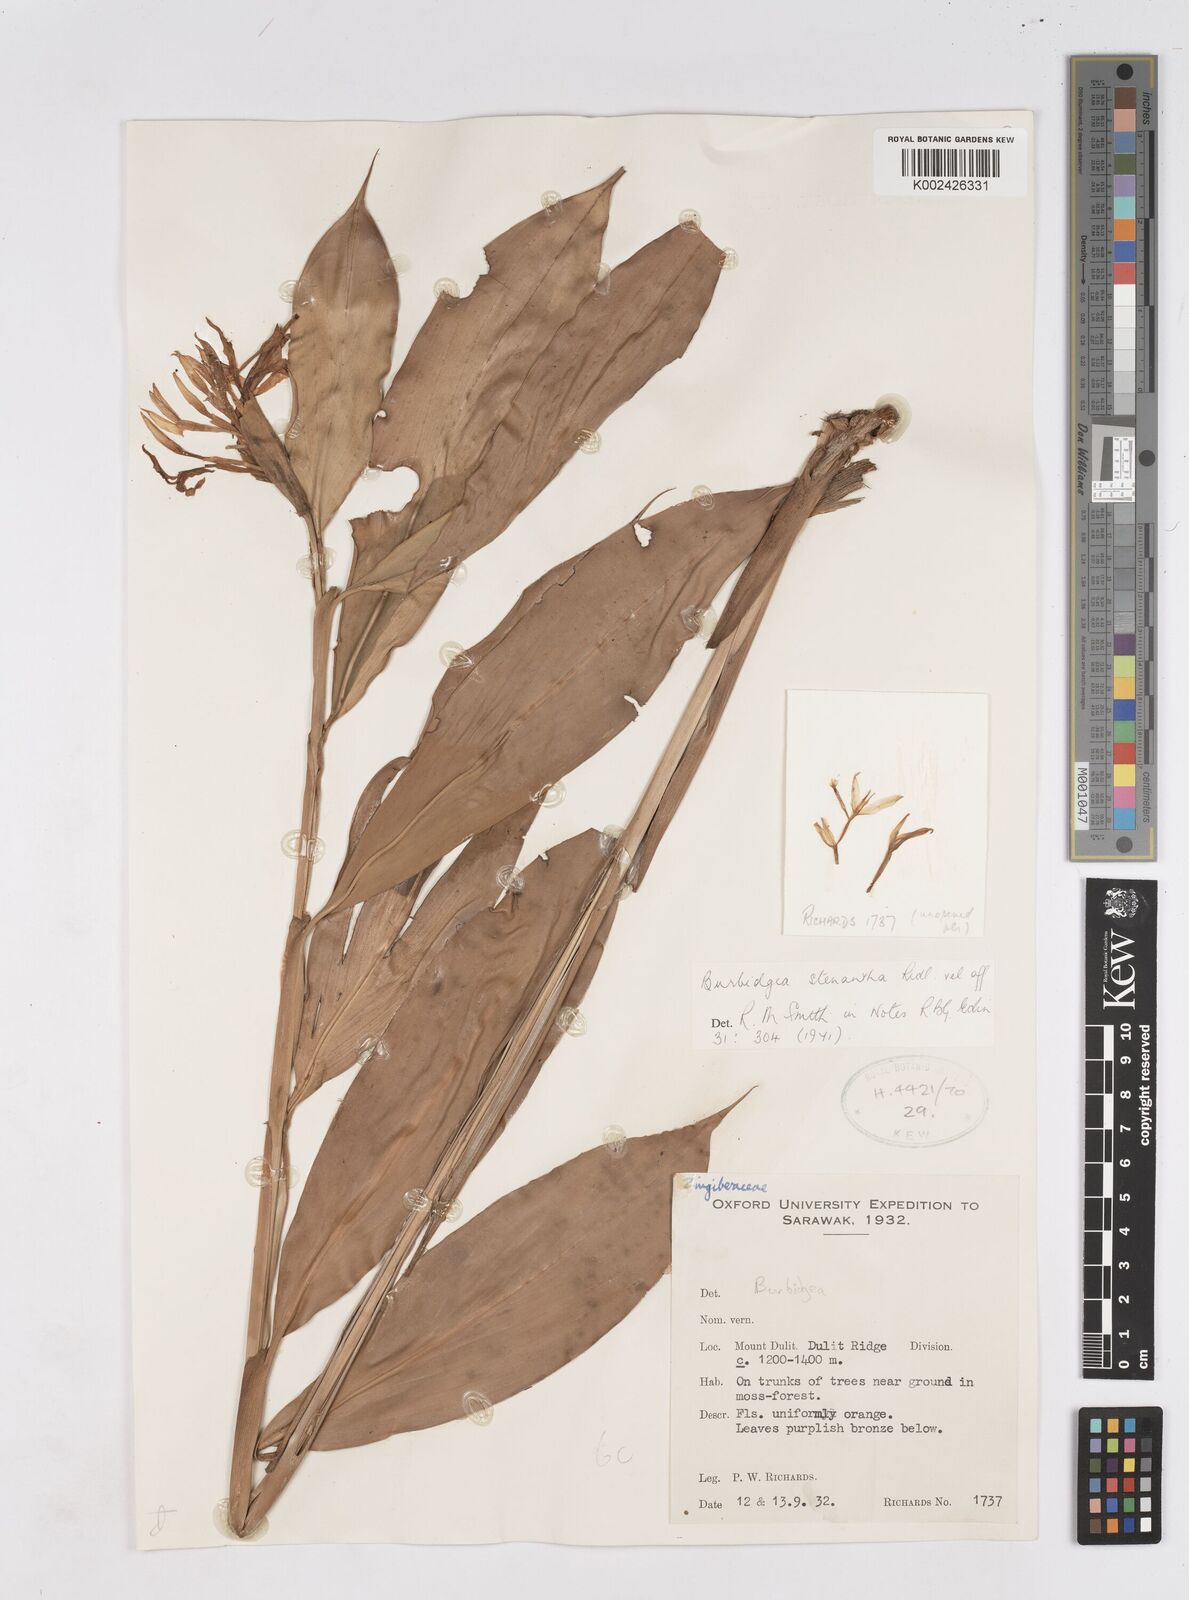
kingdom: Plantae
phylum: Tracheophyta
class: Liliopsida
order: Zingiberales
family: Zingiberaceae
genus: Burbidgea
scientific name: Burbidgea stenantha
